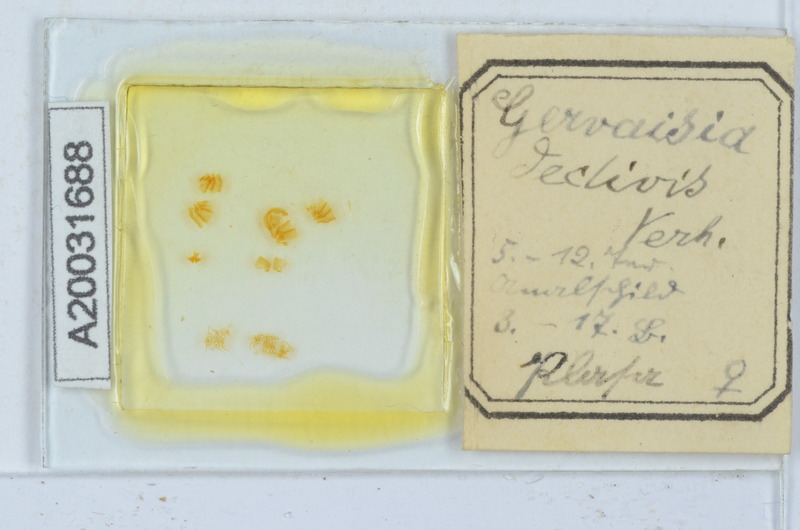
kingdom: Animalia
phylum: Arthropoda
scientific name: Arthropoda
